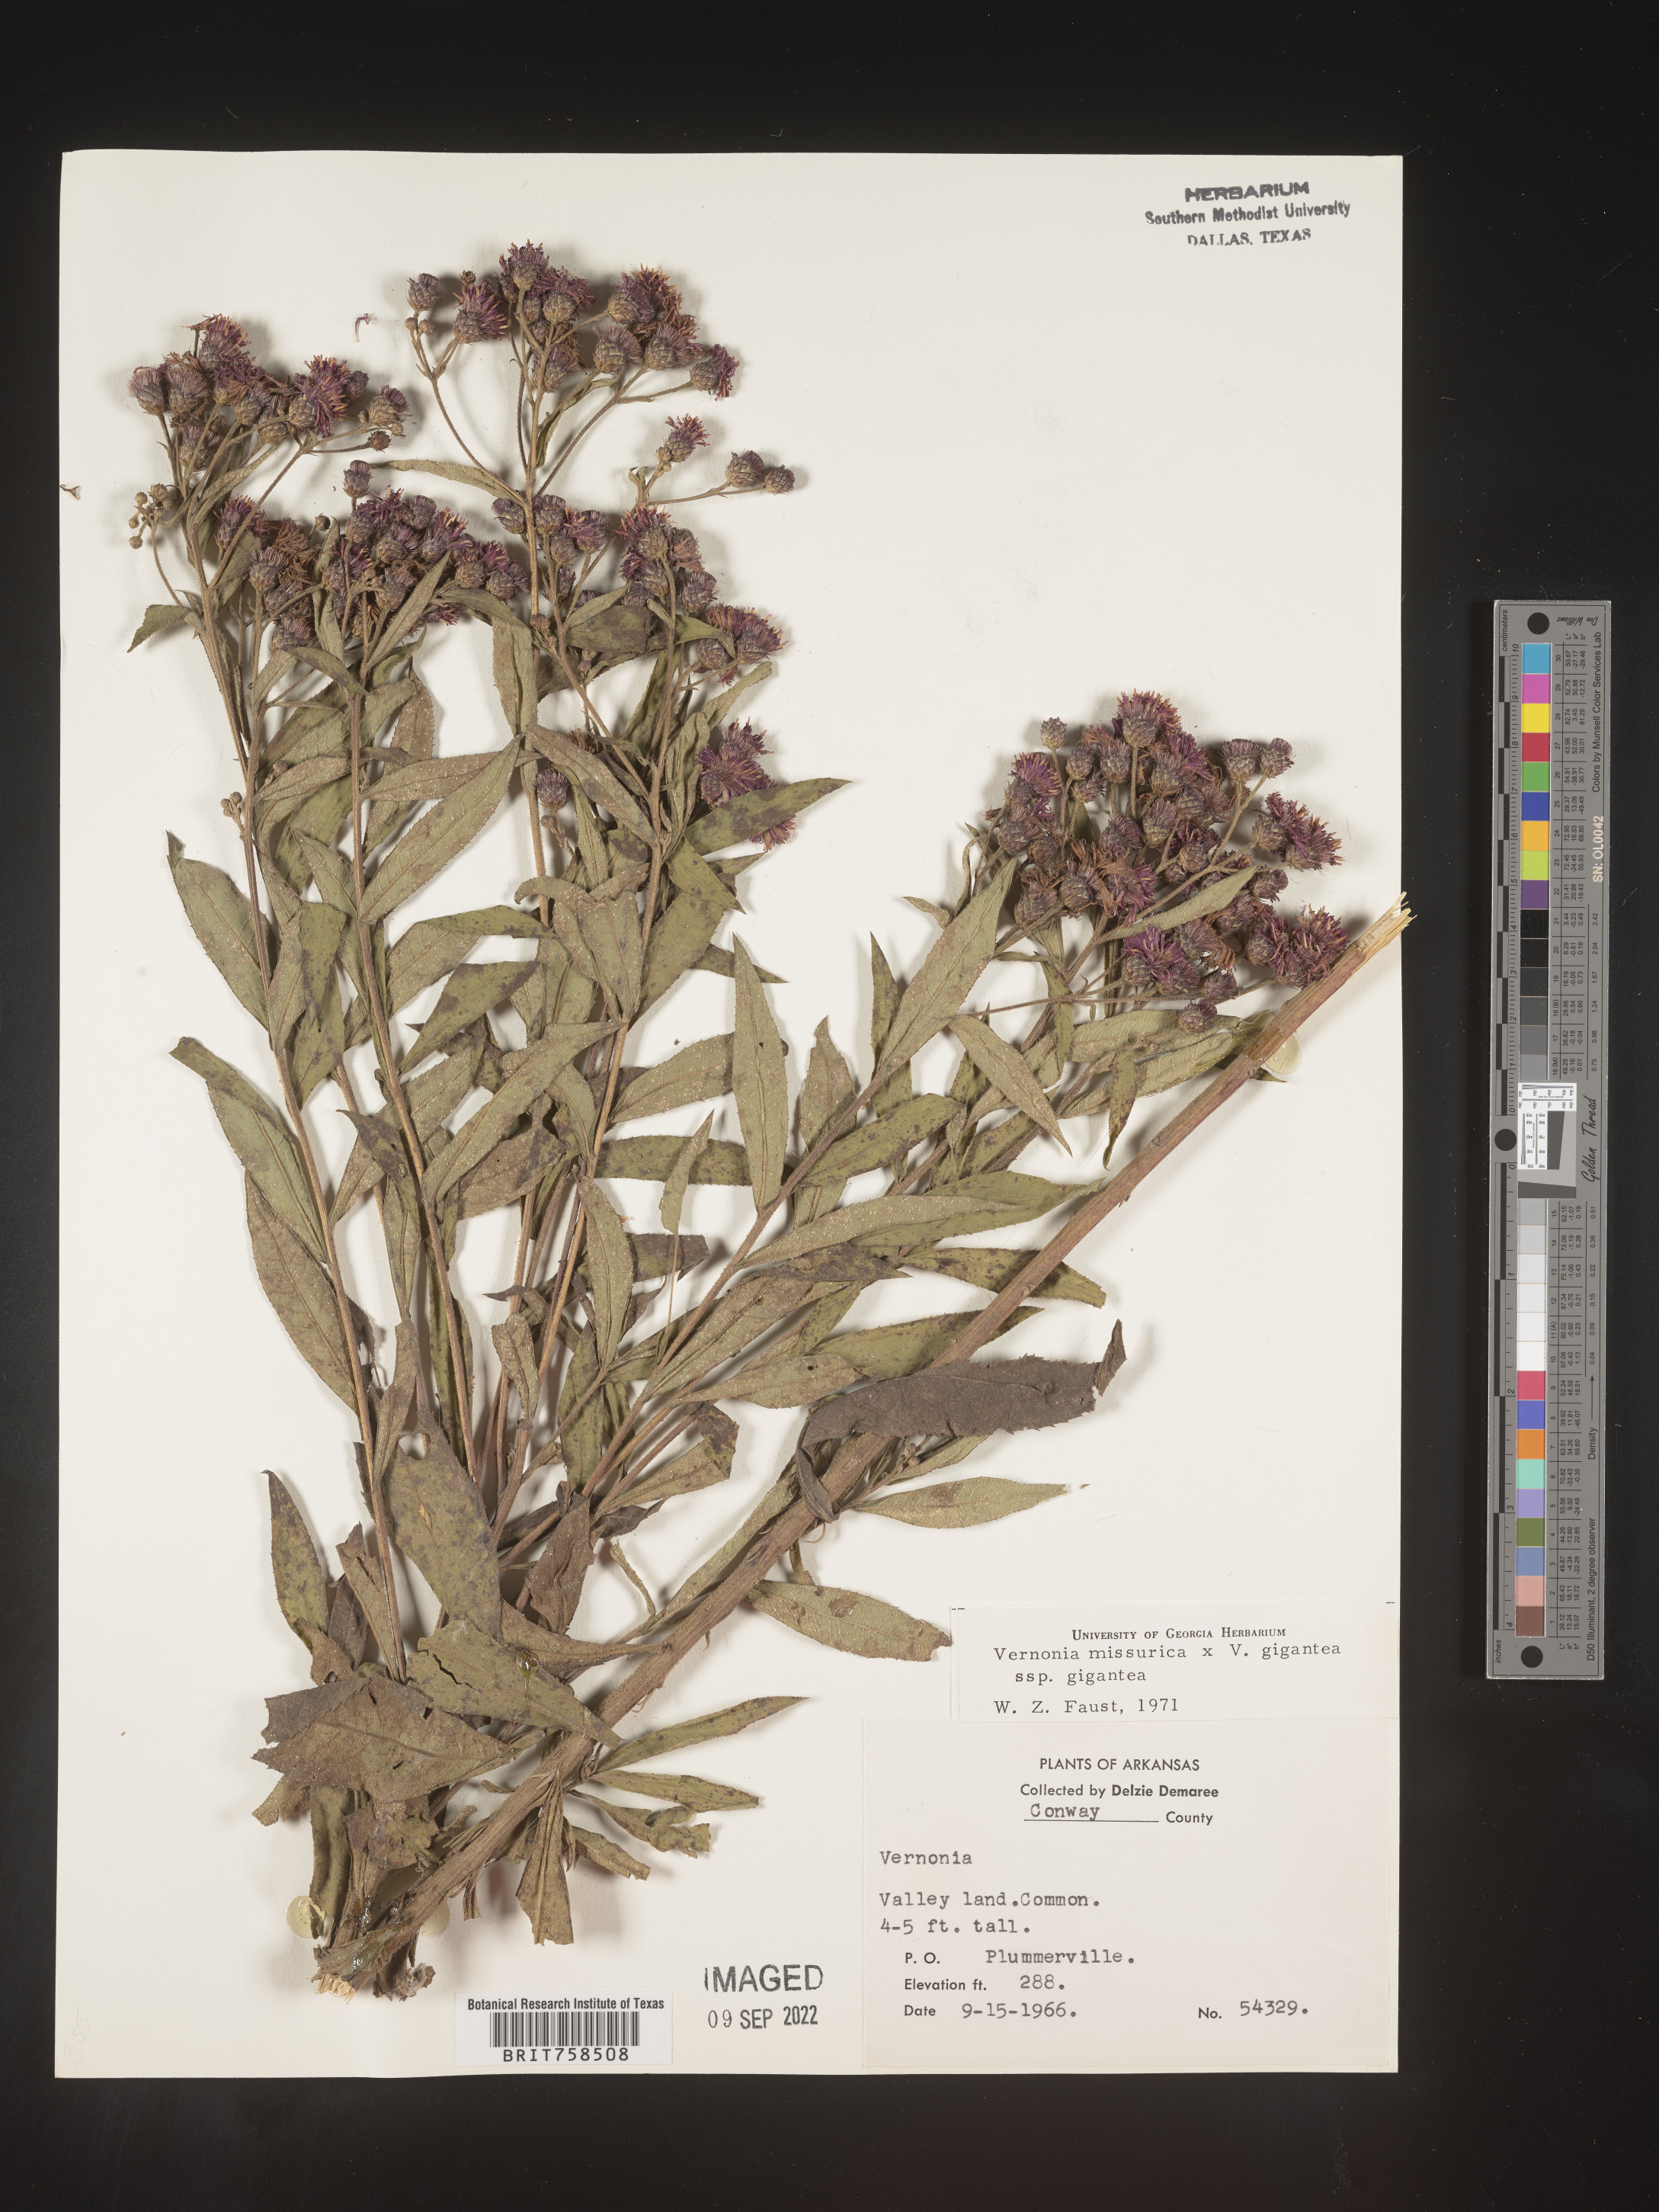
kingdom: Plantae
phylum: Tracheophyta
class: Magnoliopsida
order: Asterales
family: Asteraceae
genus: Vernonia
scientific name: Vernonia missurica
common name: Missouri ironweed
